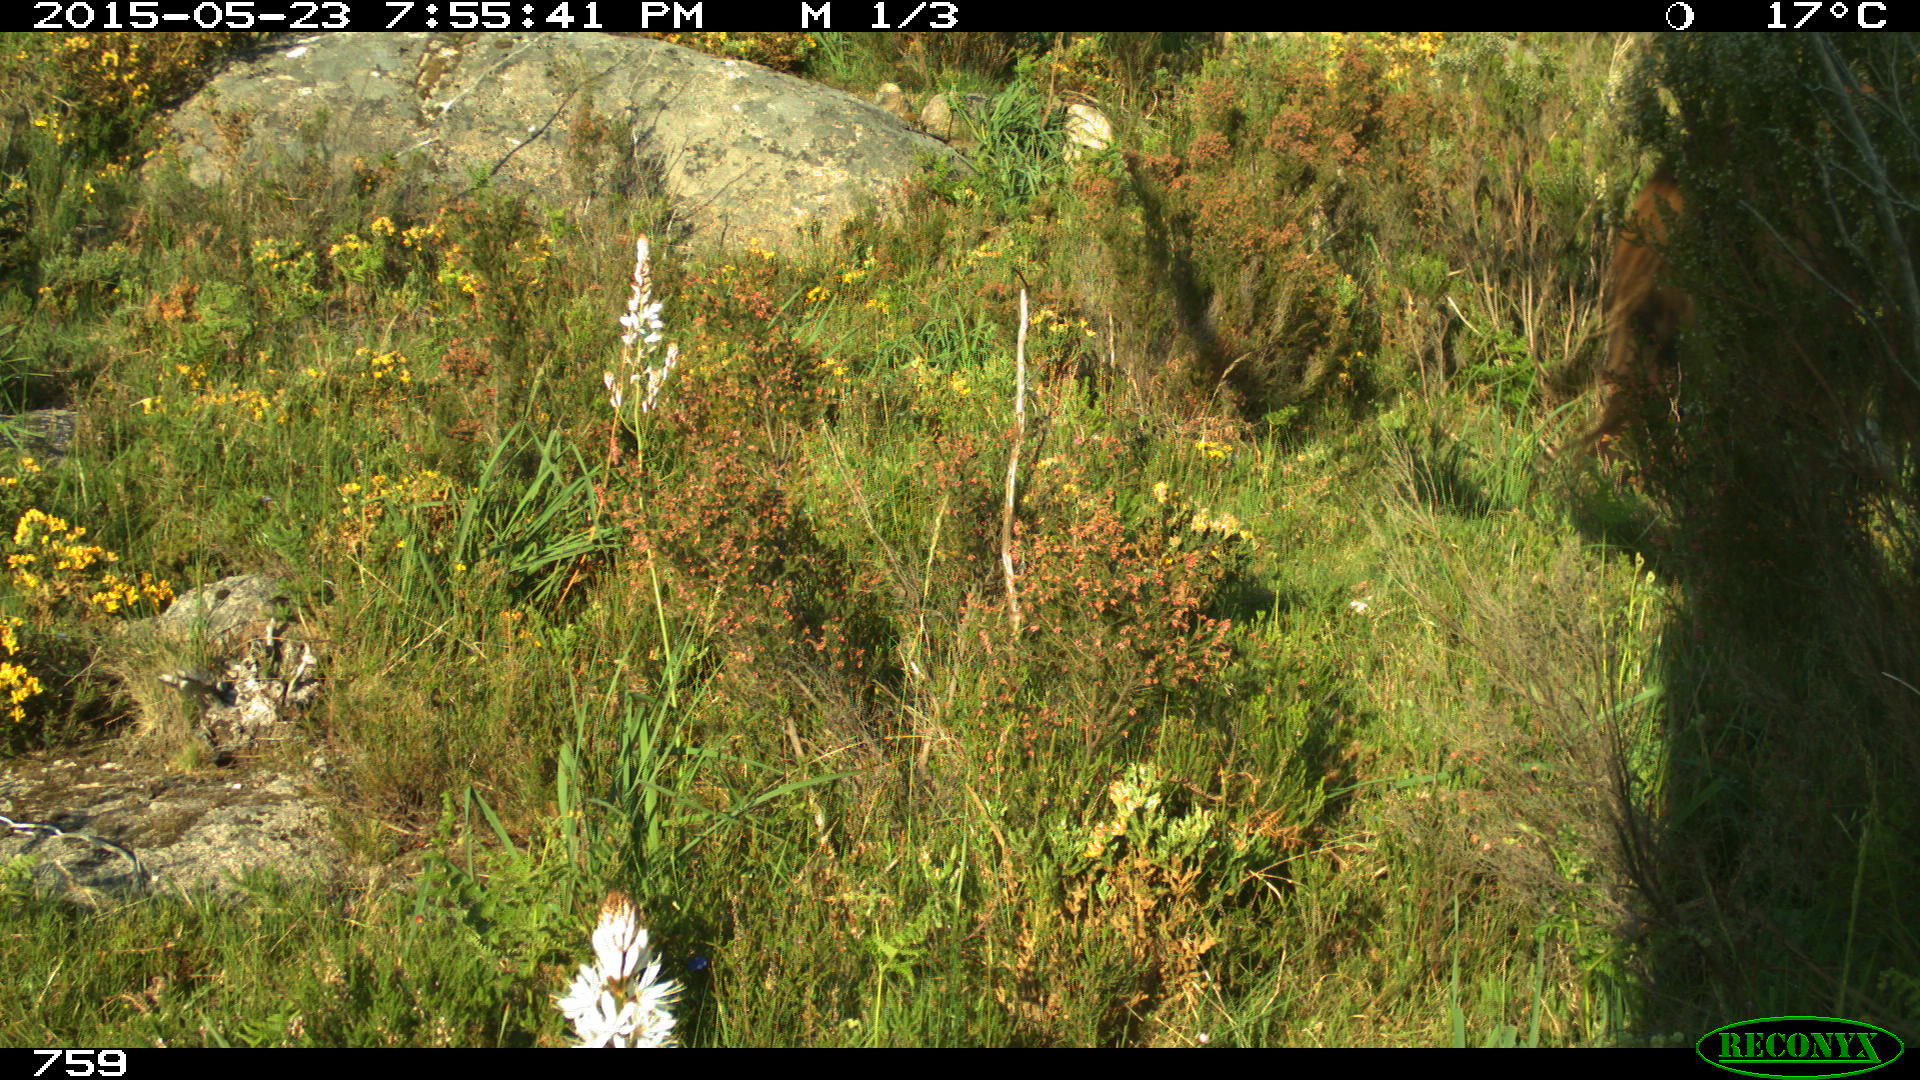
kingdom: Animalia
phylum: Chordata
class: Mammalia
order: Perissodactyla
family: Equidae
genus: Equus
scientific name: Equus caballus
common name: Horse
